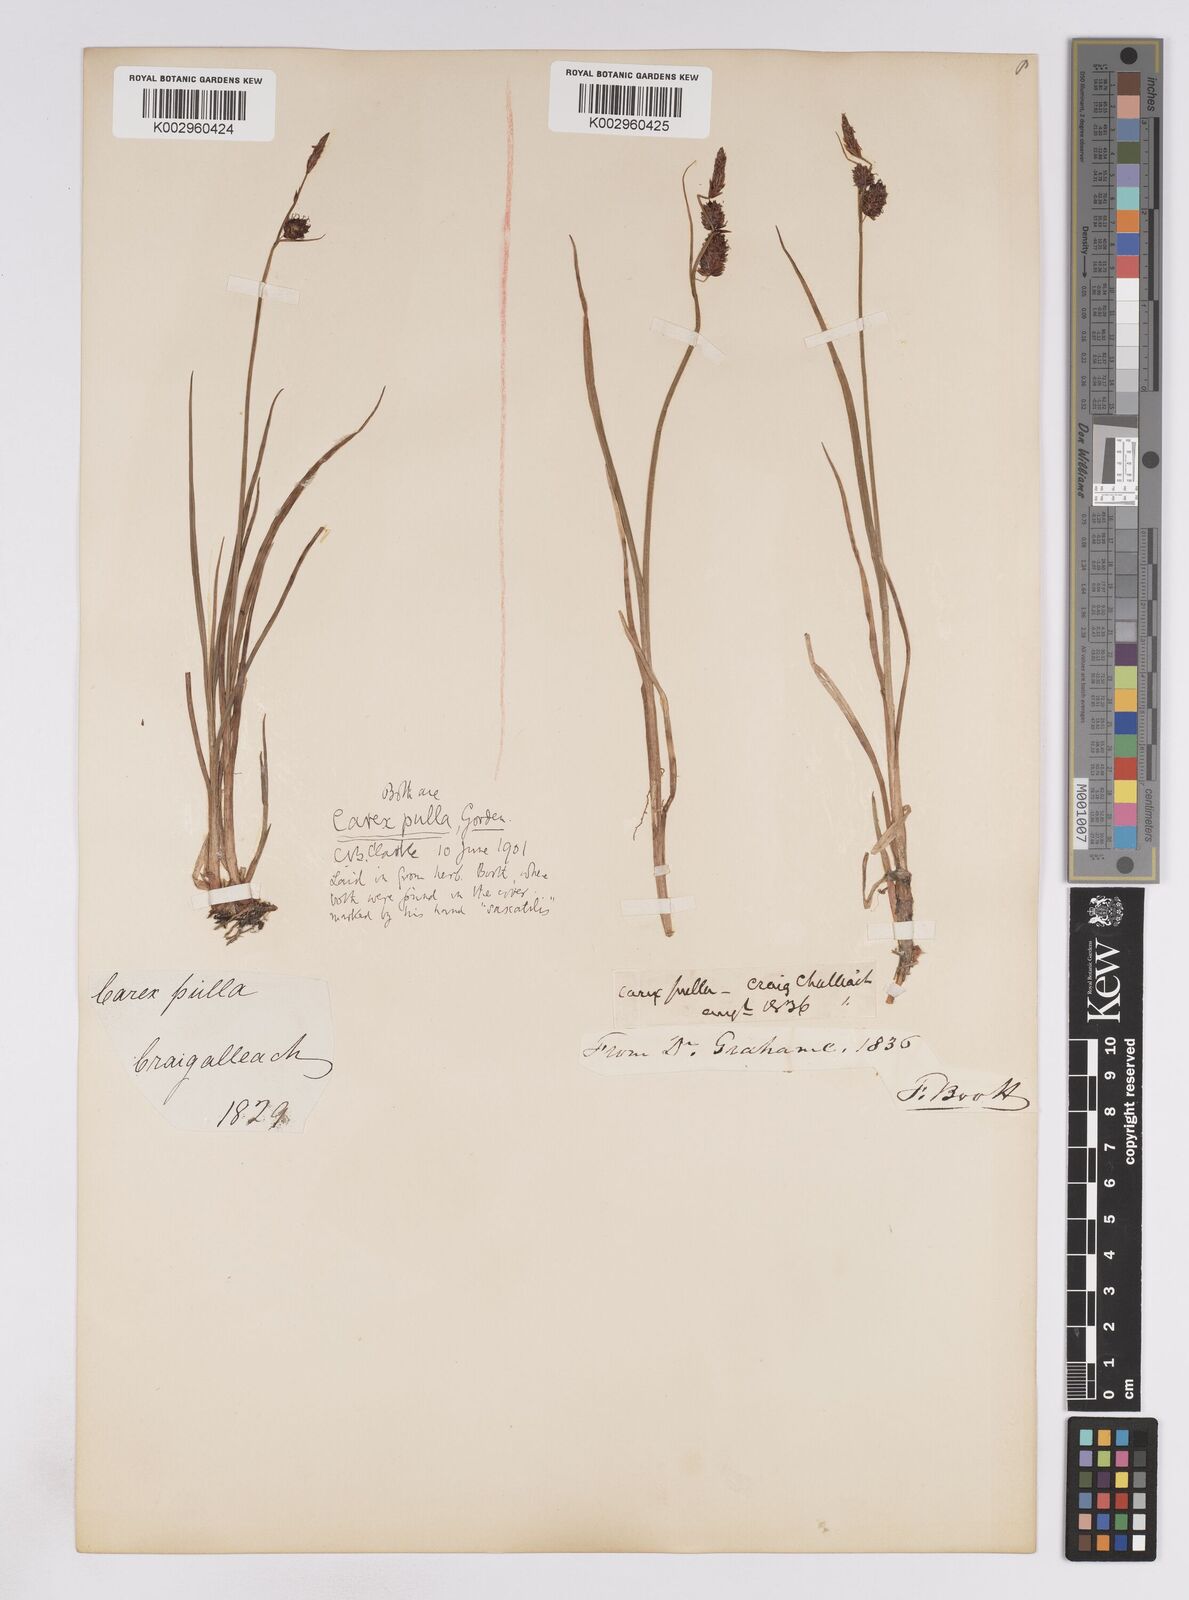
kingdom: Plantae
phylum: Tracheophyta
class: Liliopsida
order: Poales
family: Cyperaceae
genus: Carex
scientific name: Carex saxatilis
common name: Russet sedge
